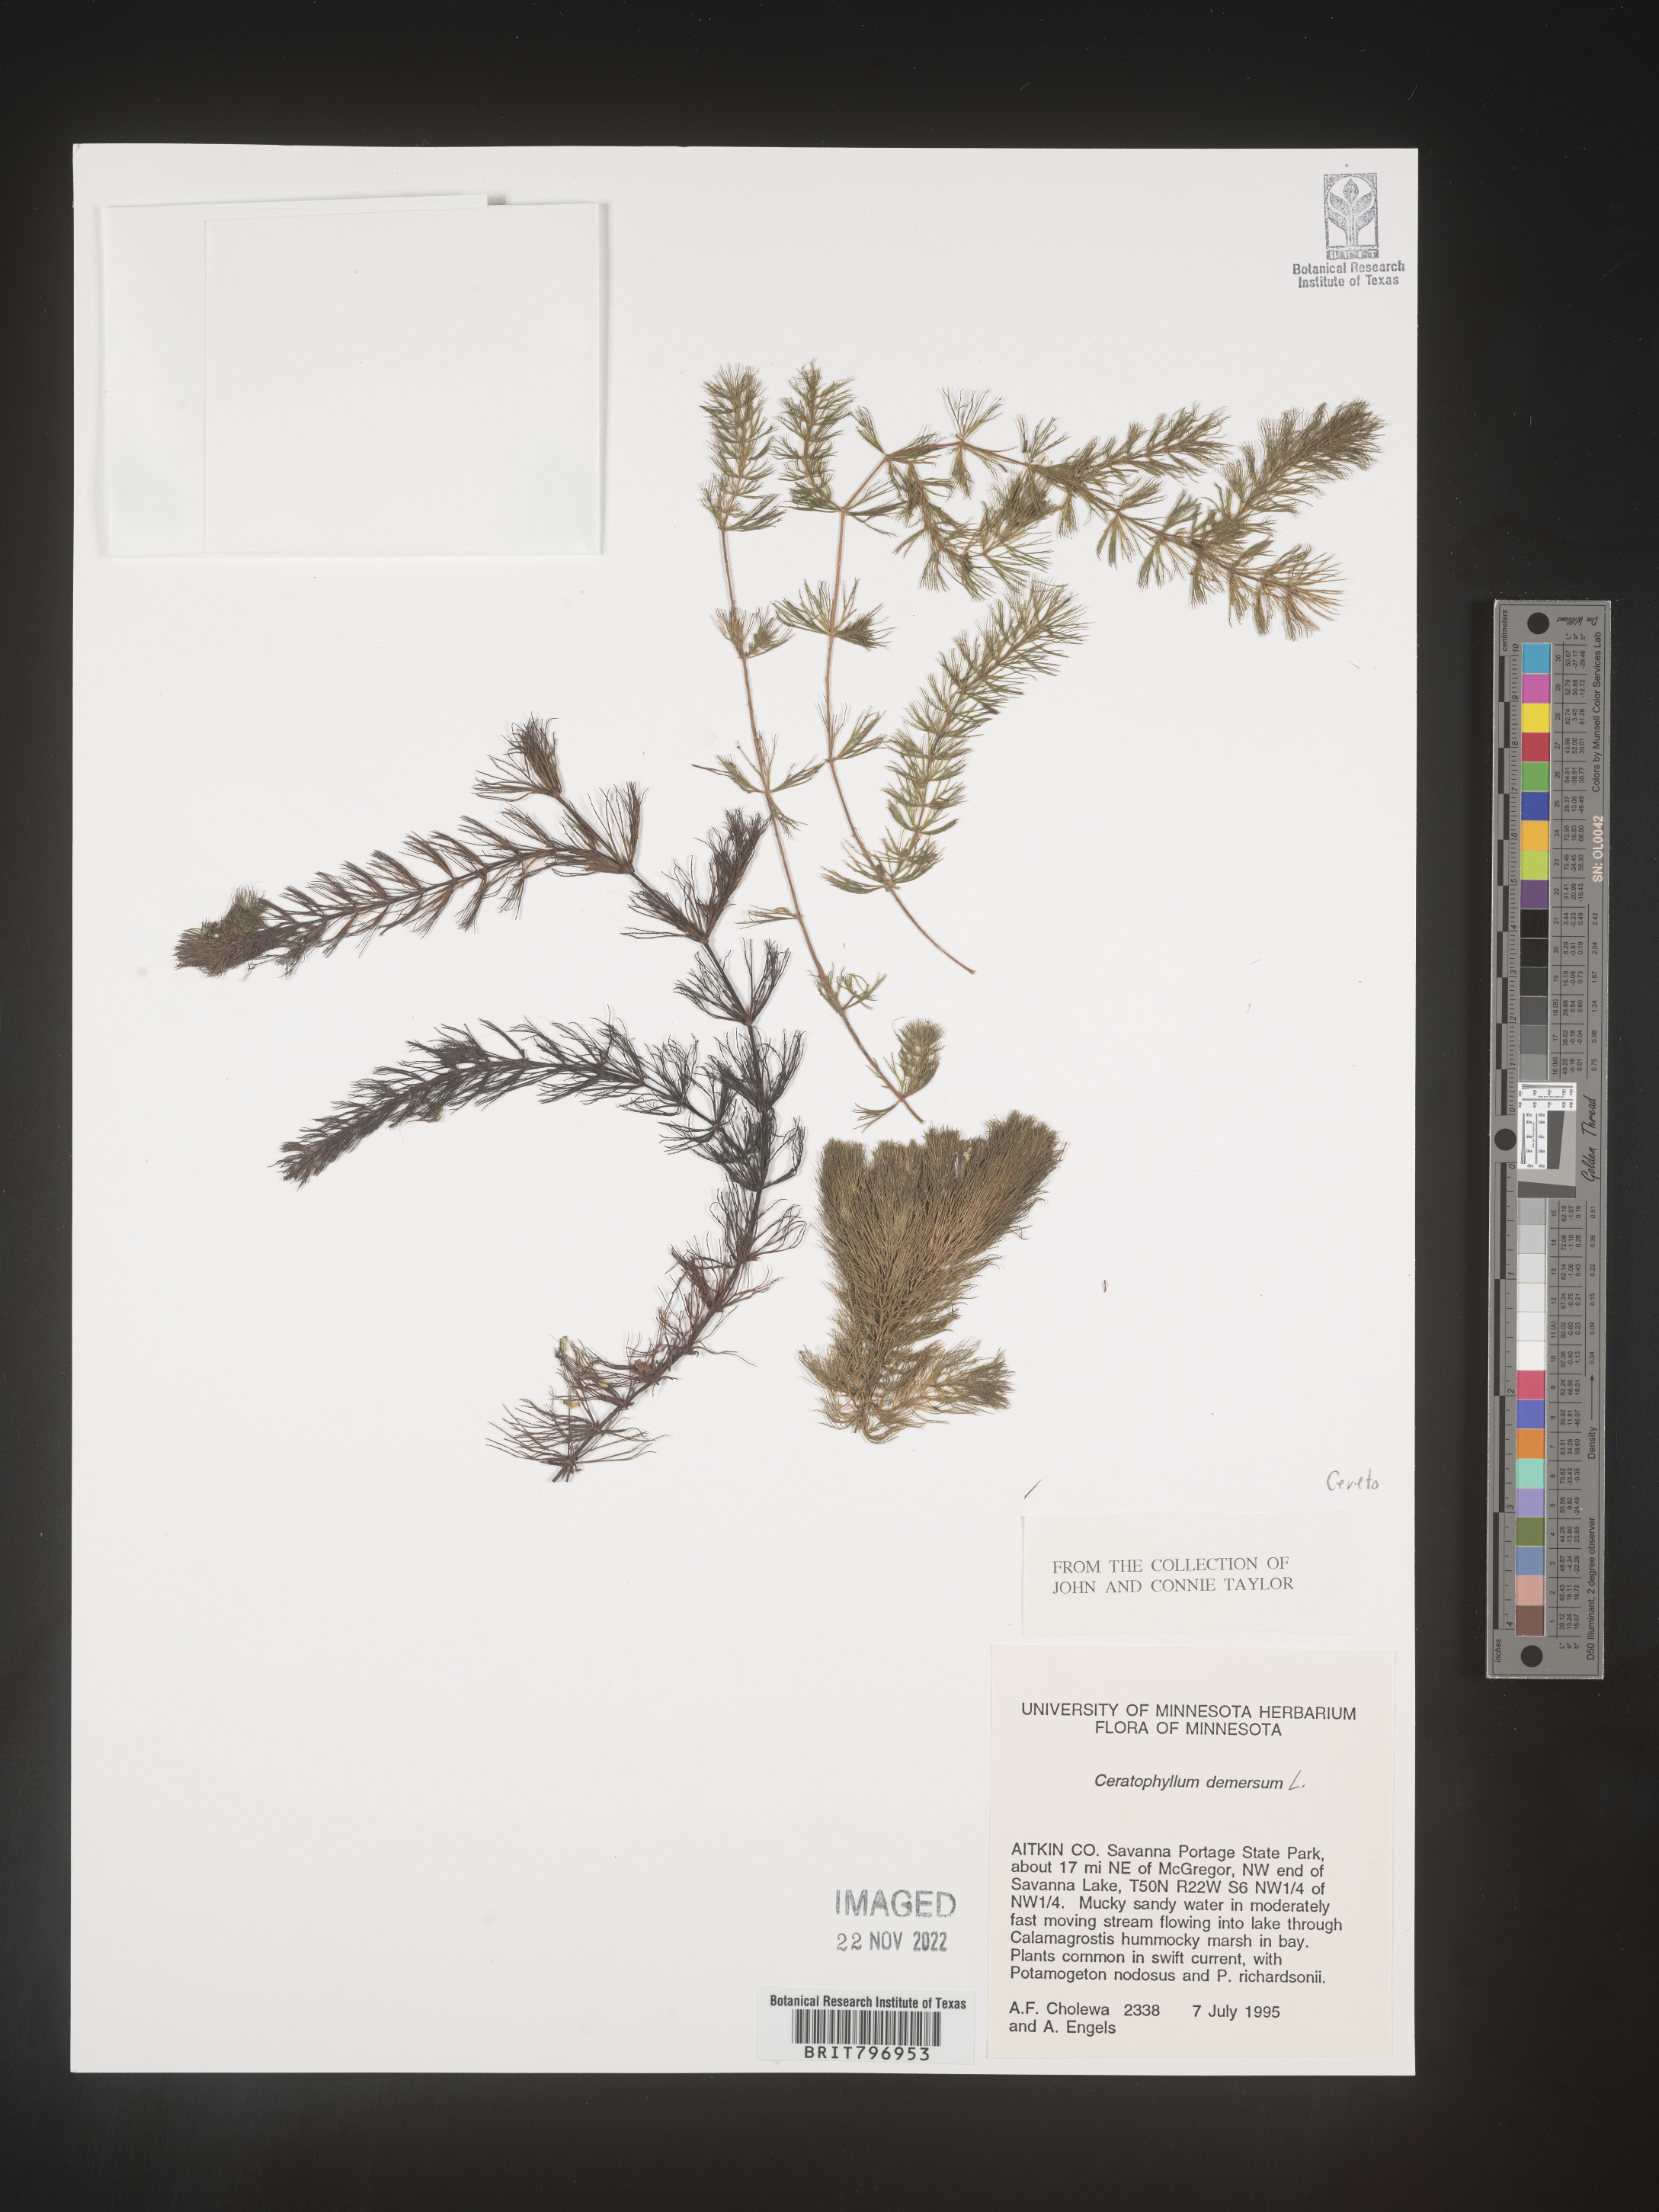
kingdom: Plantae
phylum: Tracheophyta
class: Magnoliopsida
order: Ceratophyllales
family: Ceratophyllaceae
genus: Ceratophyllum
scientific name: Ceratophyllum demersum
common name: Rigid hornwort
